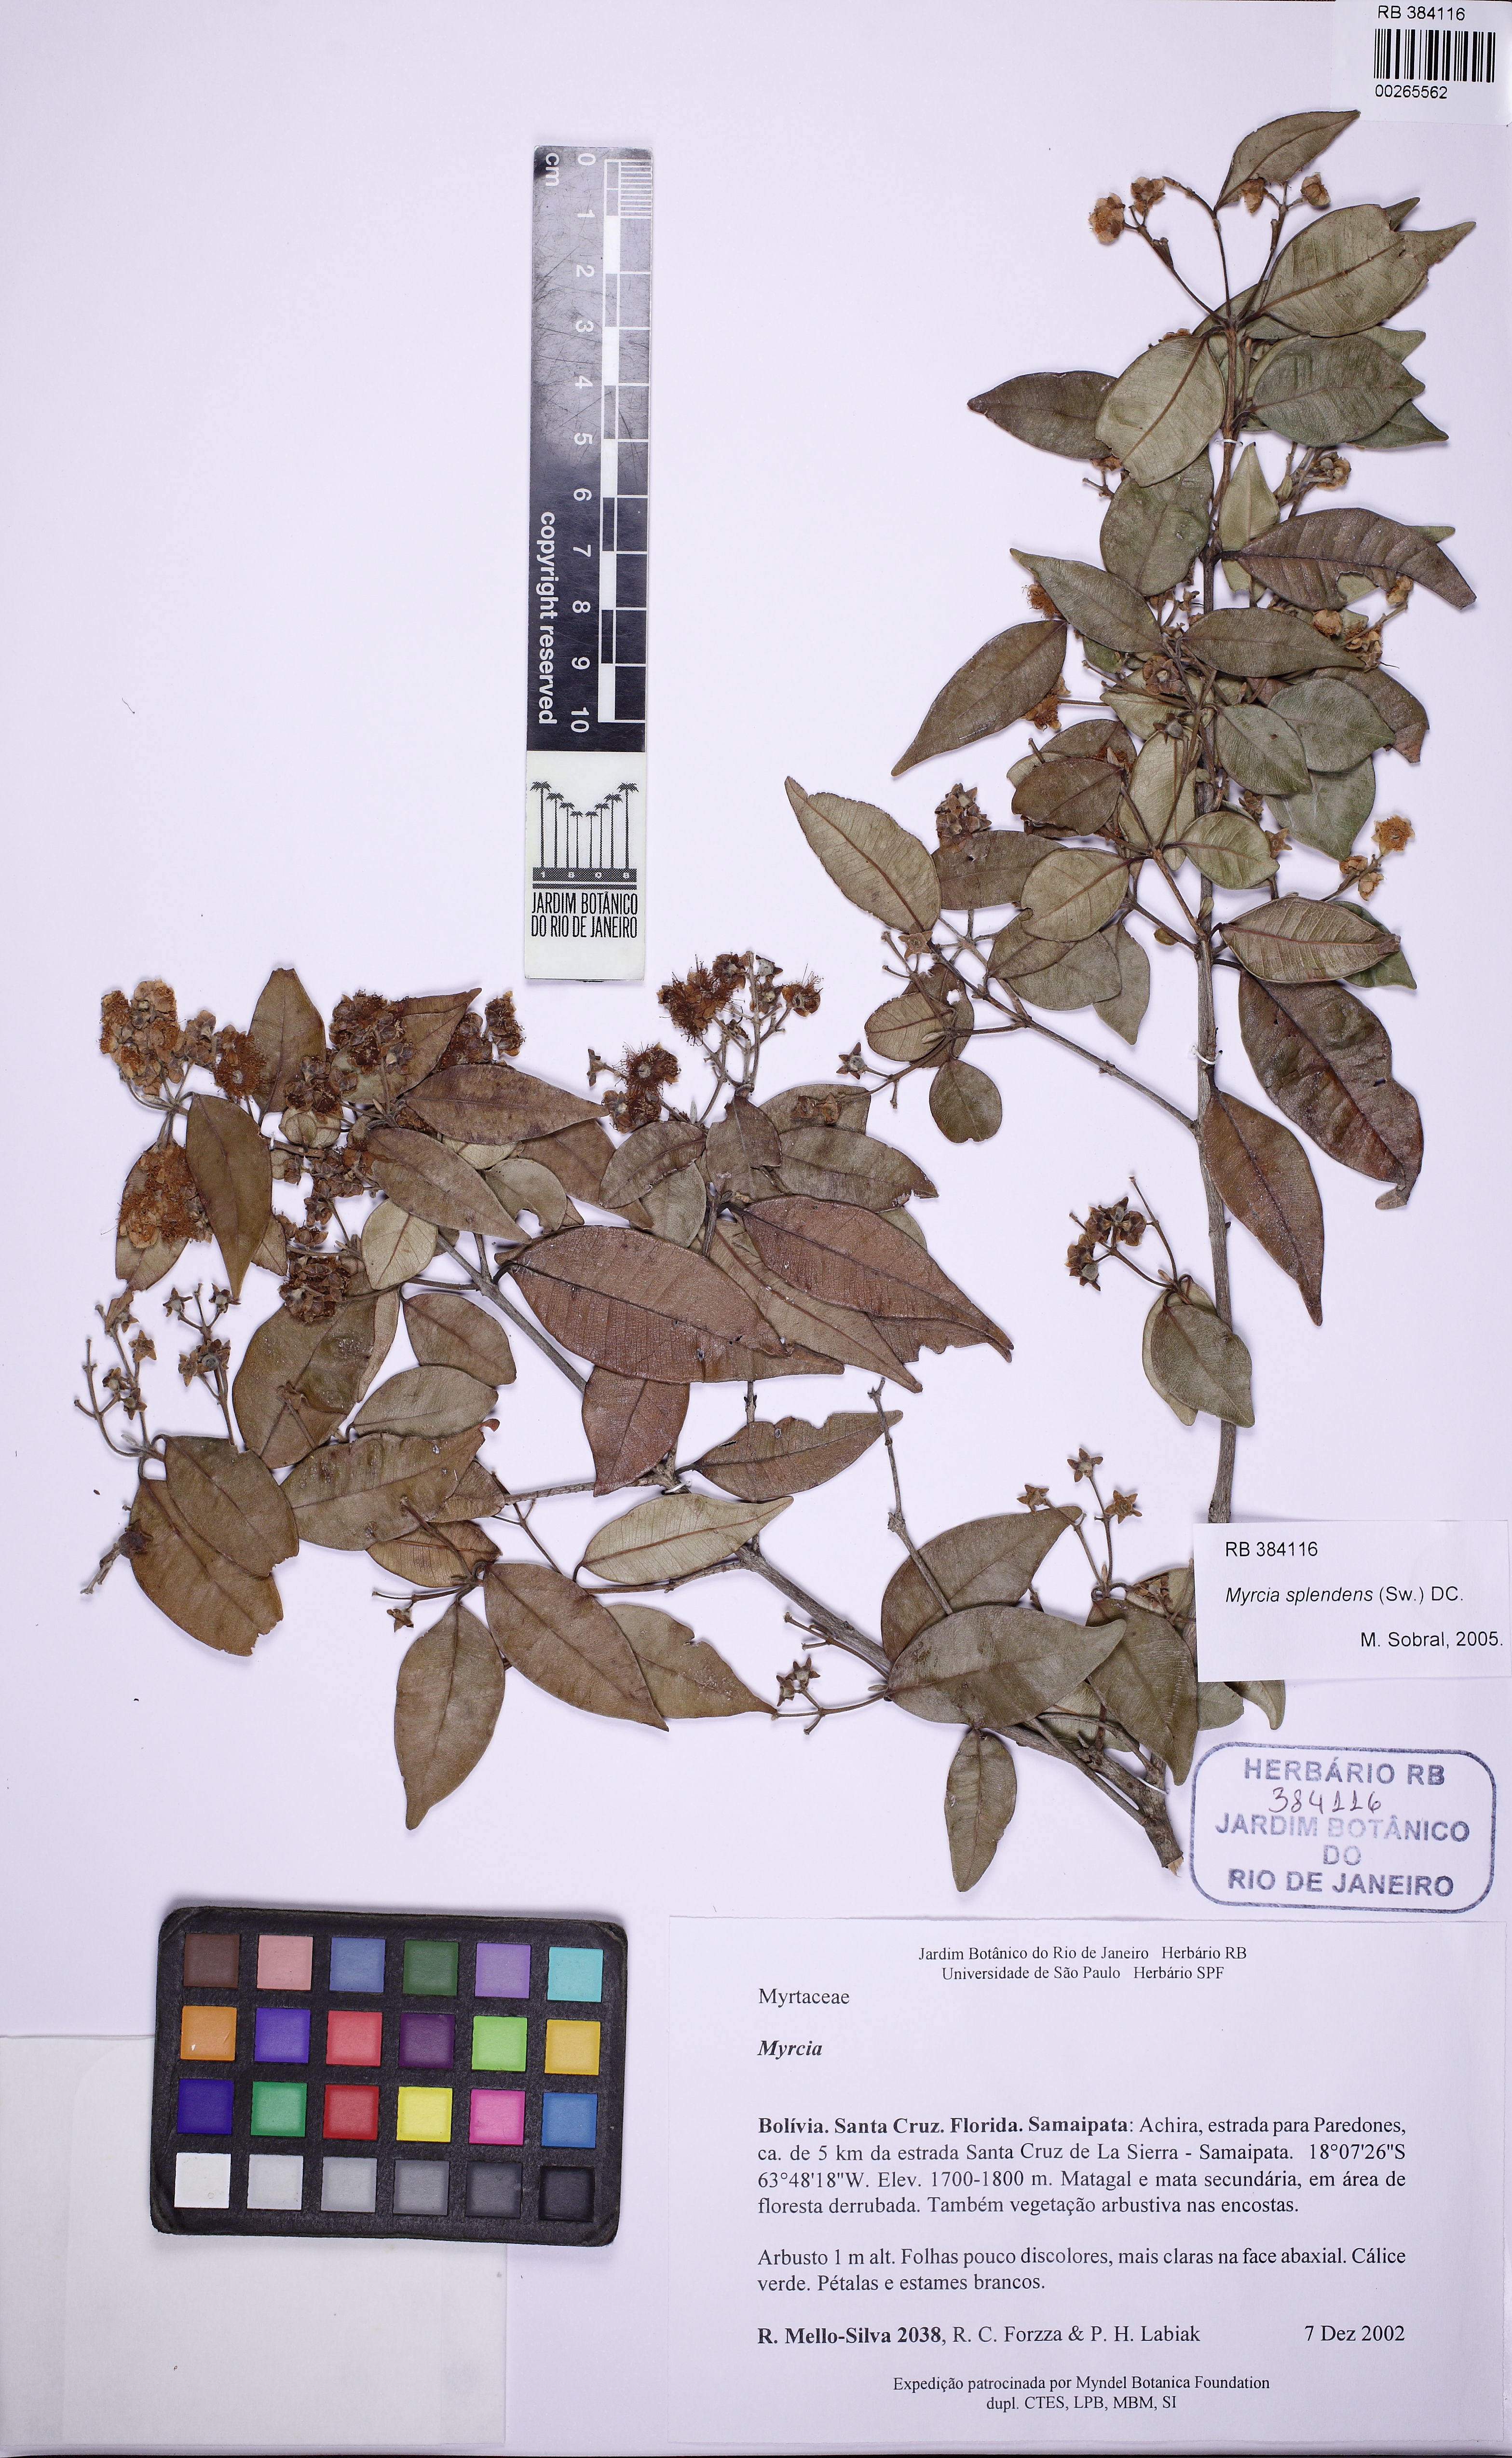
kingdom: Plantae
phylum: Tracheophyta
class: Magnoliopsida
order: Myrtales
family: Myrtaceae
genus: Myrcia
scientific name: Myrcia splendens
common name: Surinam cherry
